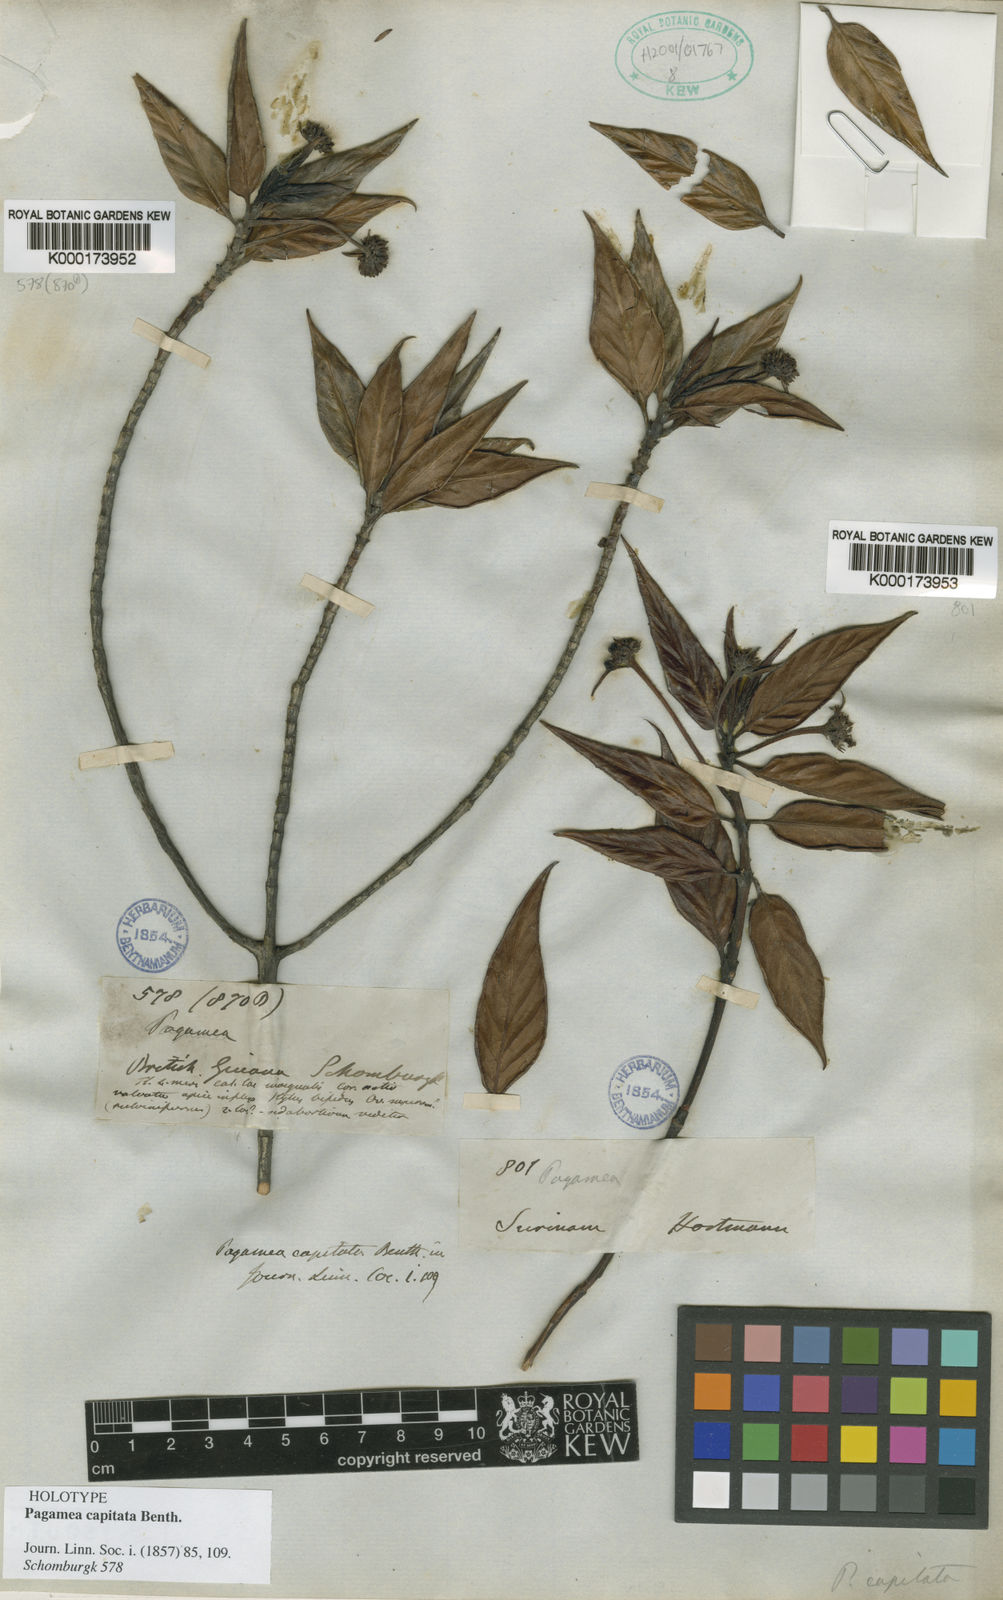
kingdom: Plantae
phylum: Tracheophyta
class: Magnoliopsida
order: Gentianales
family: Rubiaceae
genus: Pagamea
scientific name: Pagamea capitata
